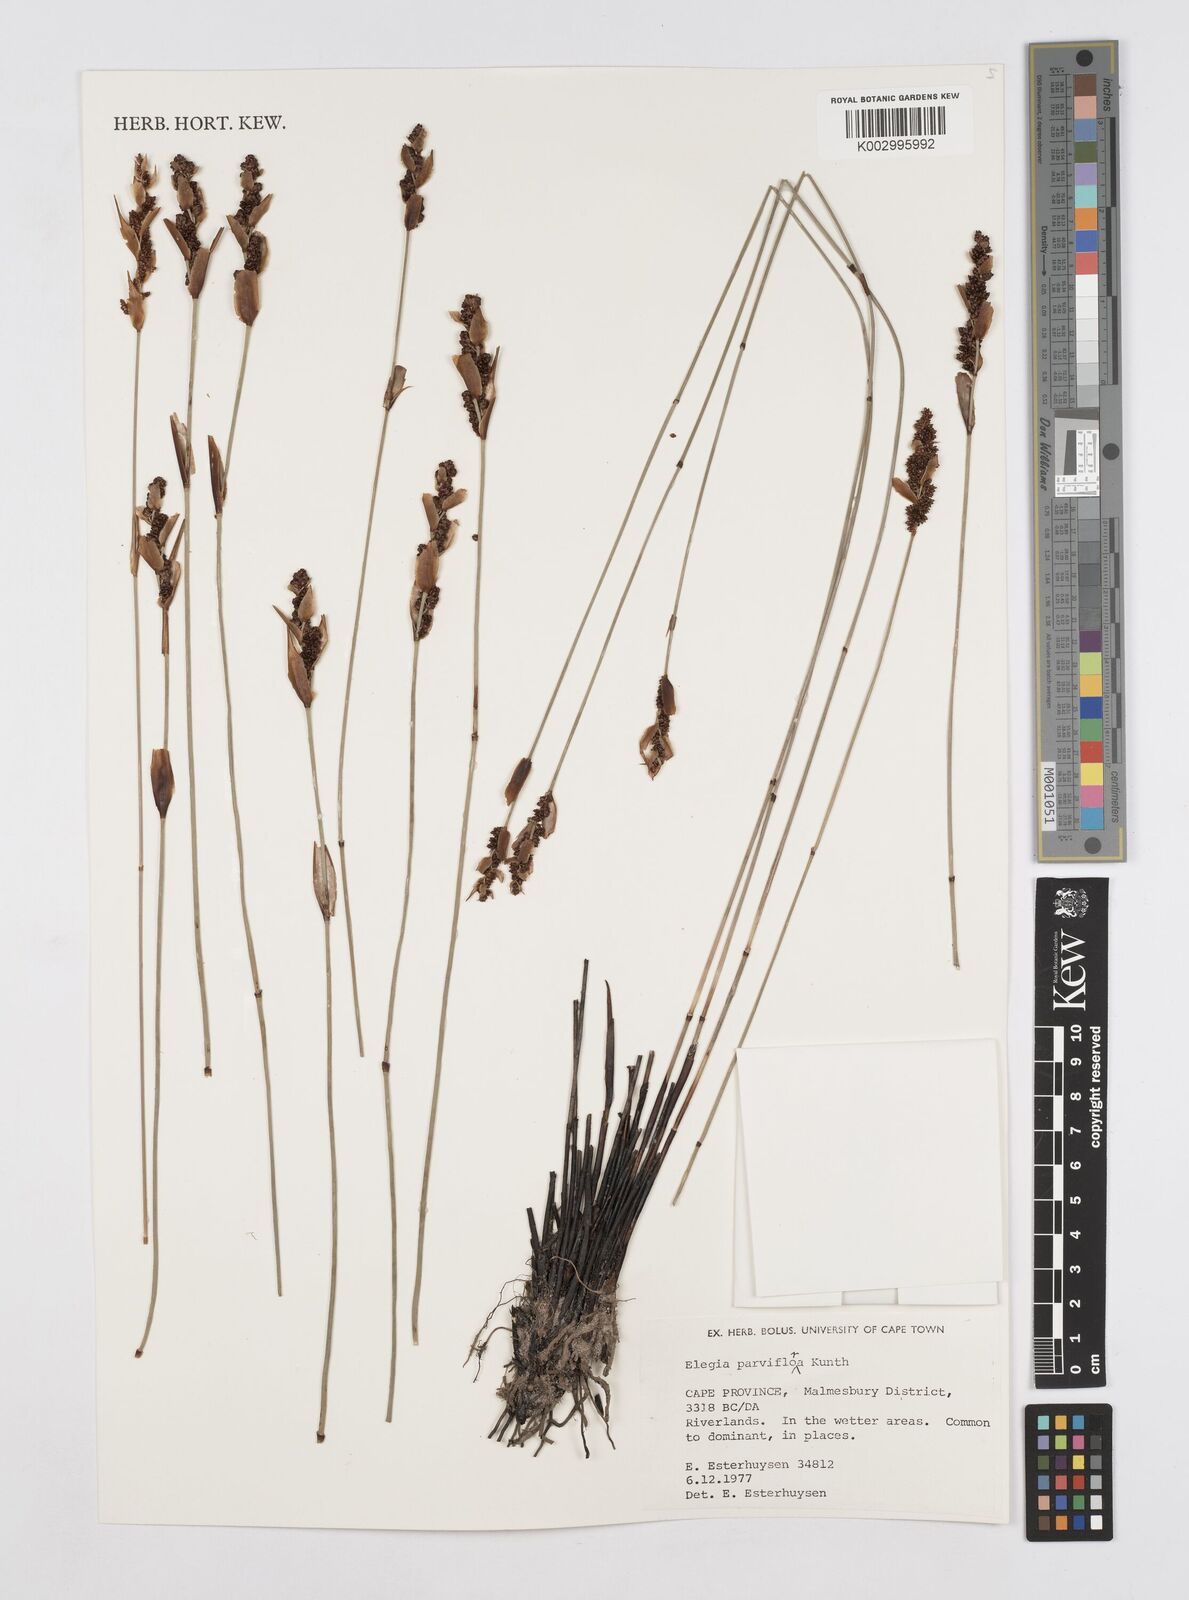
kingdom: Plantae
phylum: Tracheophyta
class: Liliopsida
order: Poales
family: Restionaceae
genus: Cannomois
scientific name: Cannomois parviflora
